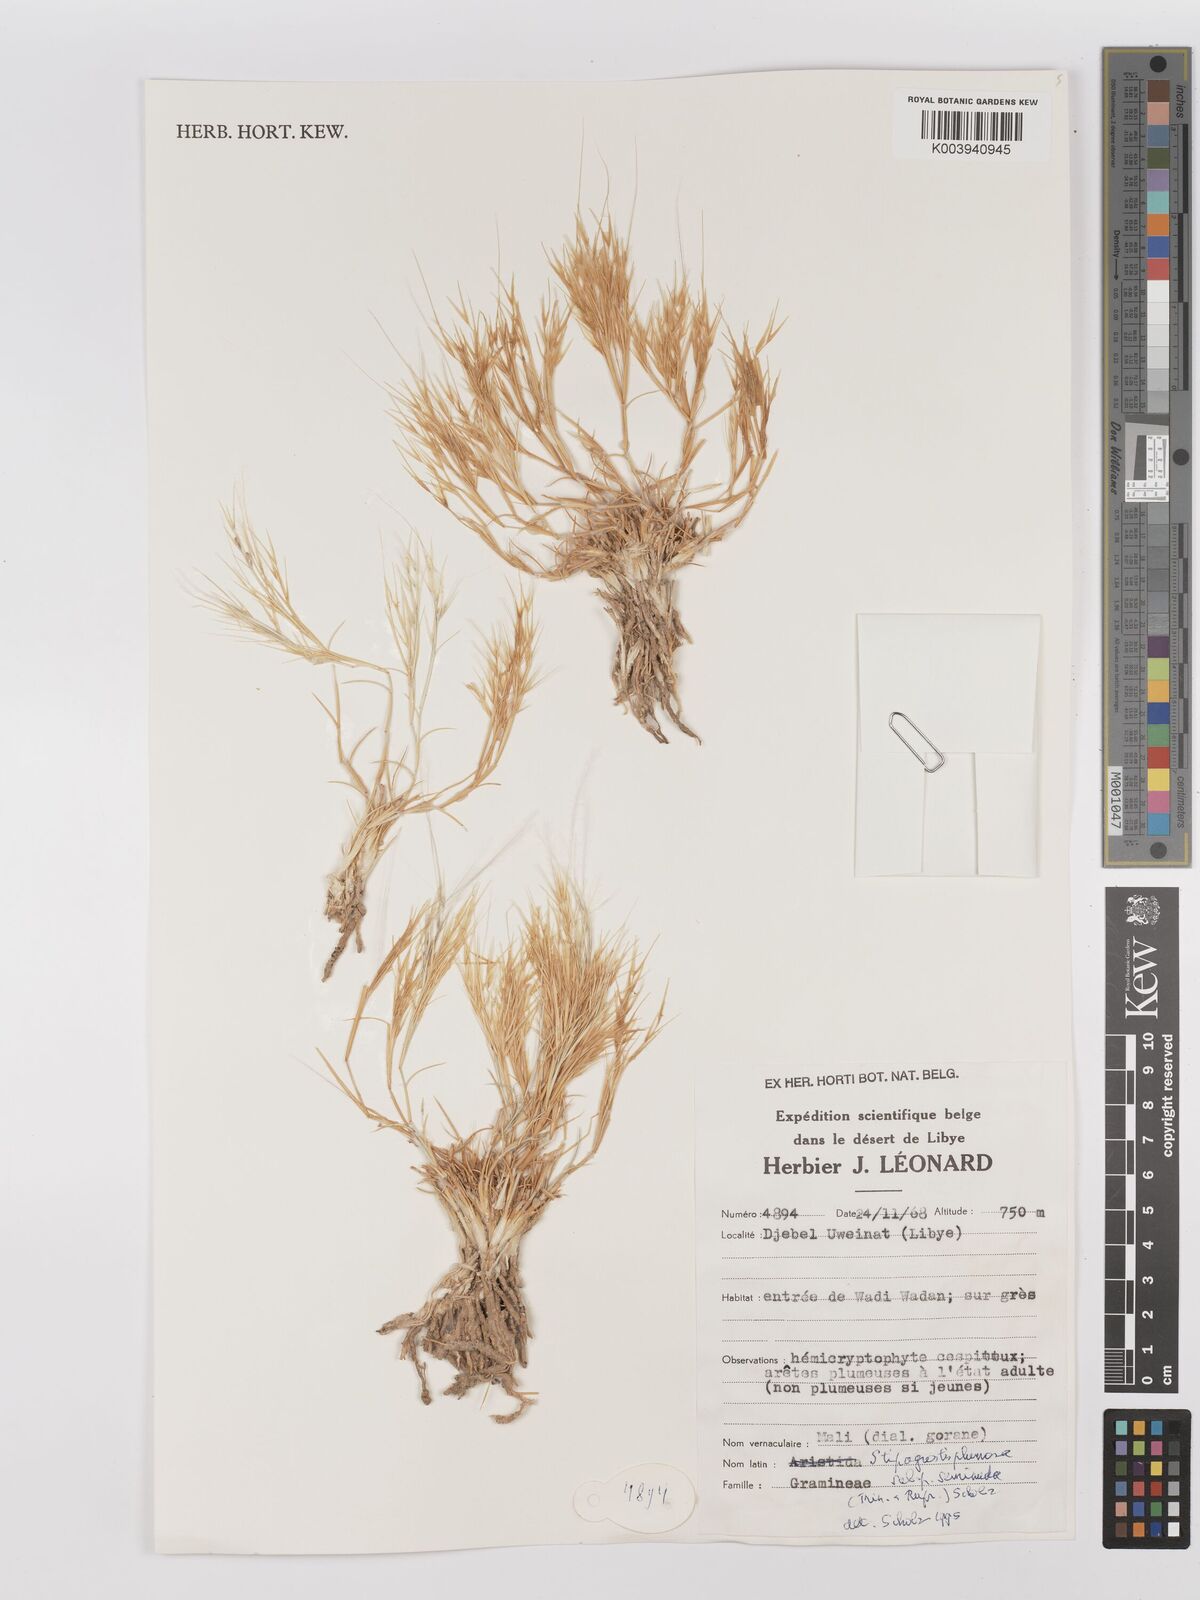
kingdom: Plantae
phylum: Tracheophyta
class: Liliopsida
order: Poales
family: Poaceae
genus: Stipagrostis
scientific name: Stipagrostis plumosa
